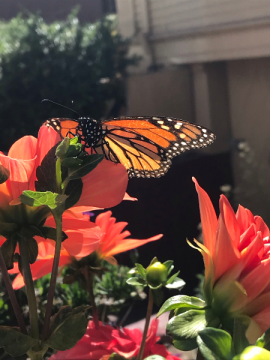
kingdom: Animalia
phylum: Arthropoda
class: Insecta
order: Lepidoptera
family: Nymphalidae
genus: Danaus
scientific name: Danaus plexippus
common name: Monarch
